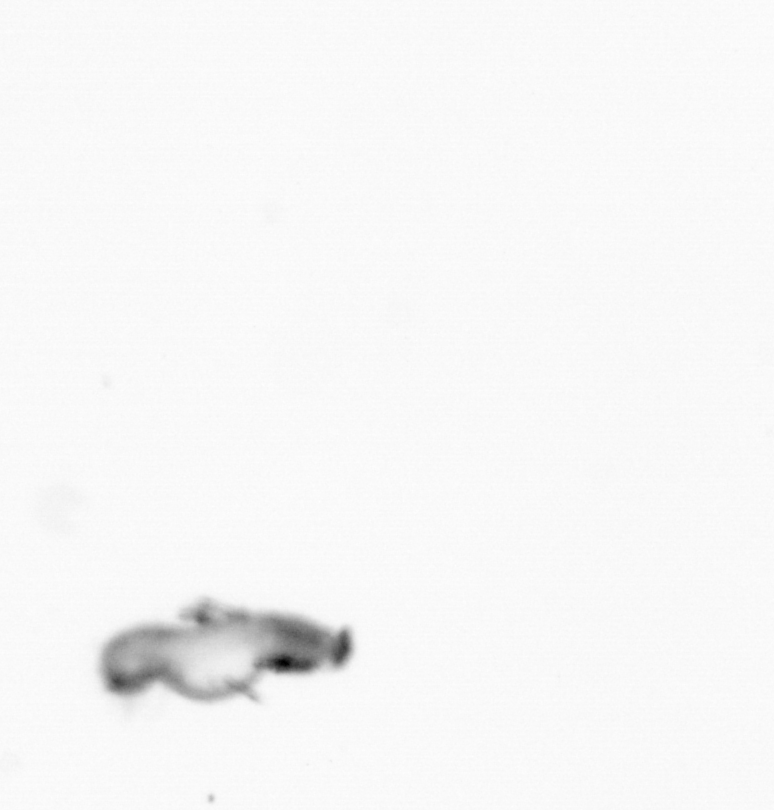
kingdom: Animalia
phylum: Annelida
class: Polychaeta
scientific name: Polychaeta
